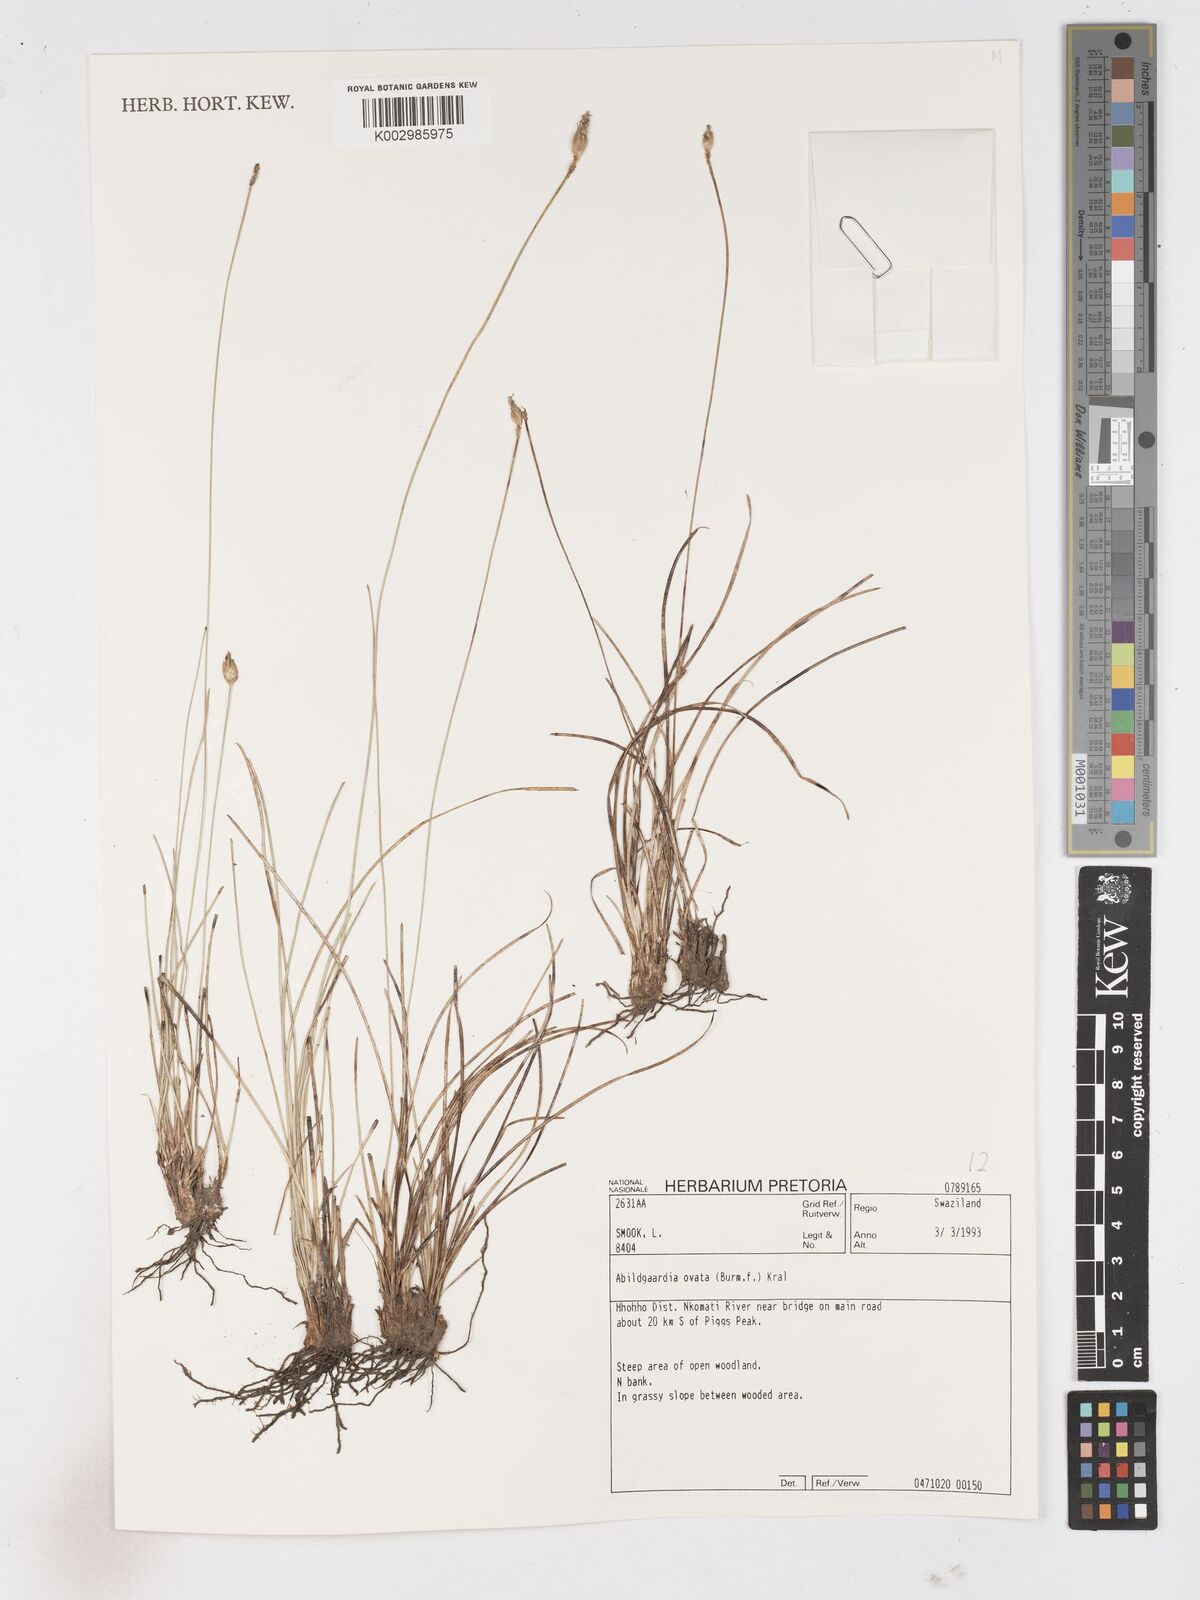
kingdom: Plantae
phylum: Tracheophyta
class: Liliopsida
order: Poales
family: Cyperaceae
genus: Abildgaardia
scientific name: Abildgaardia ovata
